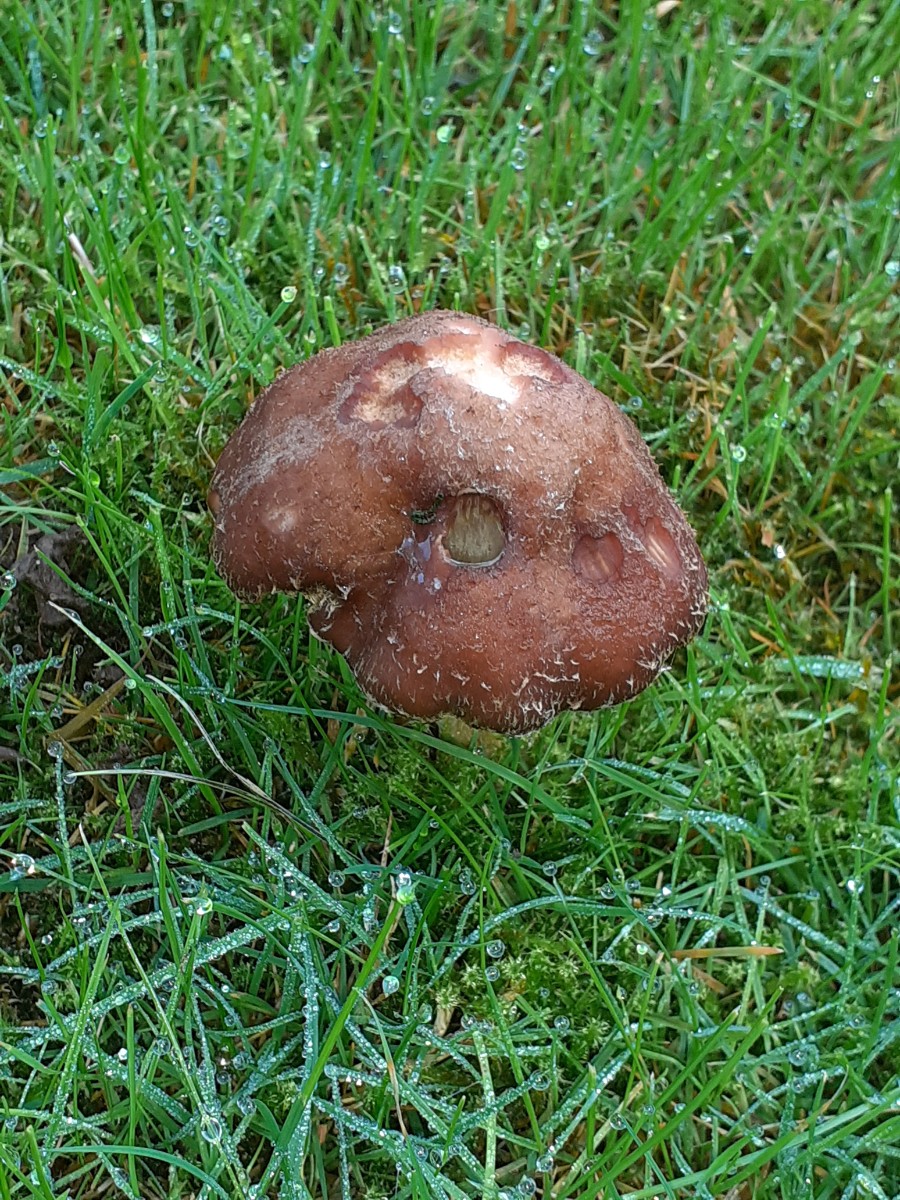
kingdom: Fungi
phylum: Basidiomycota
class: Agaricomycetes
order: Agaricales
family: Physalacriaceae
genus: Armillaria
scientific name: Armillaria lutea
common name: køllestokket honningsvamp
